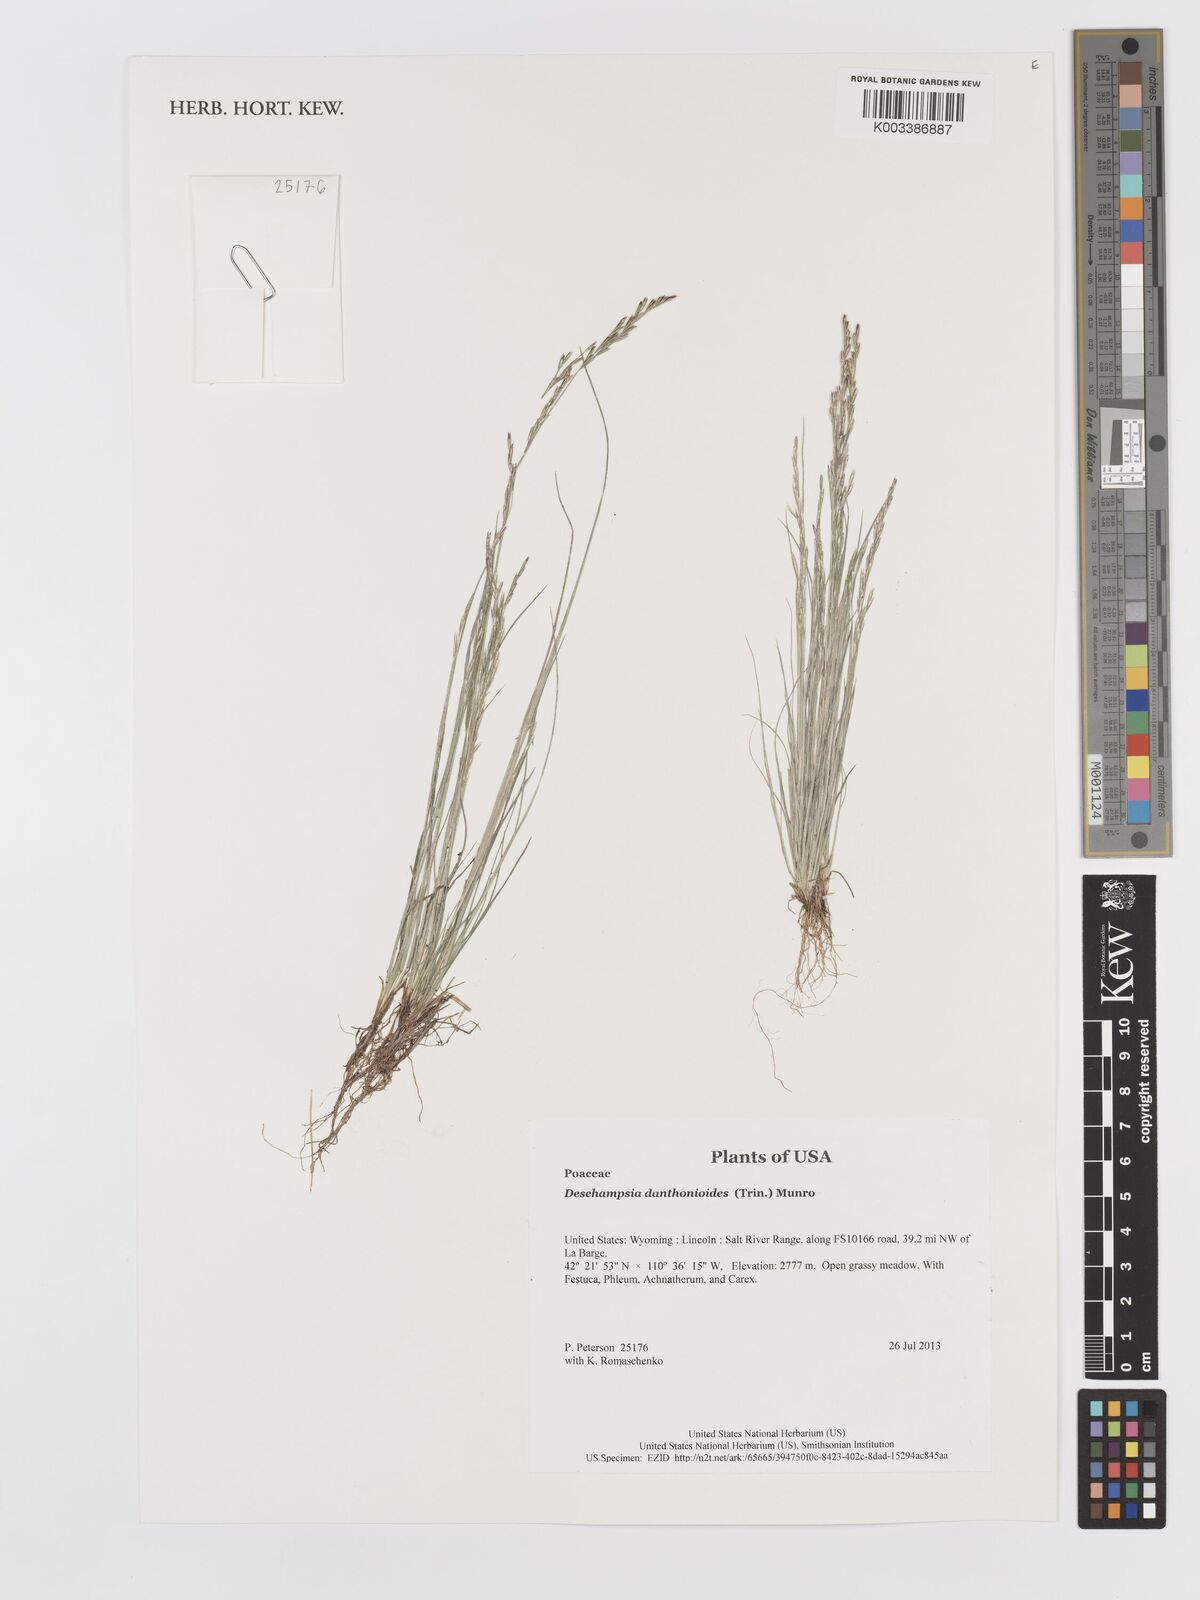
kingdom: Plantae
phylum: Tracheophyta
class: Liliopsida
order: Poales
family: Poaceae
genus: Deschampsia
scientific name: Deschampsia danthonioides
